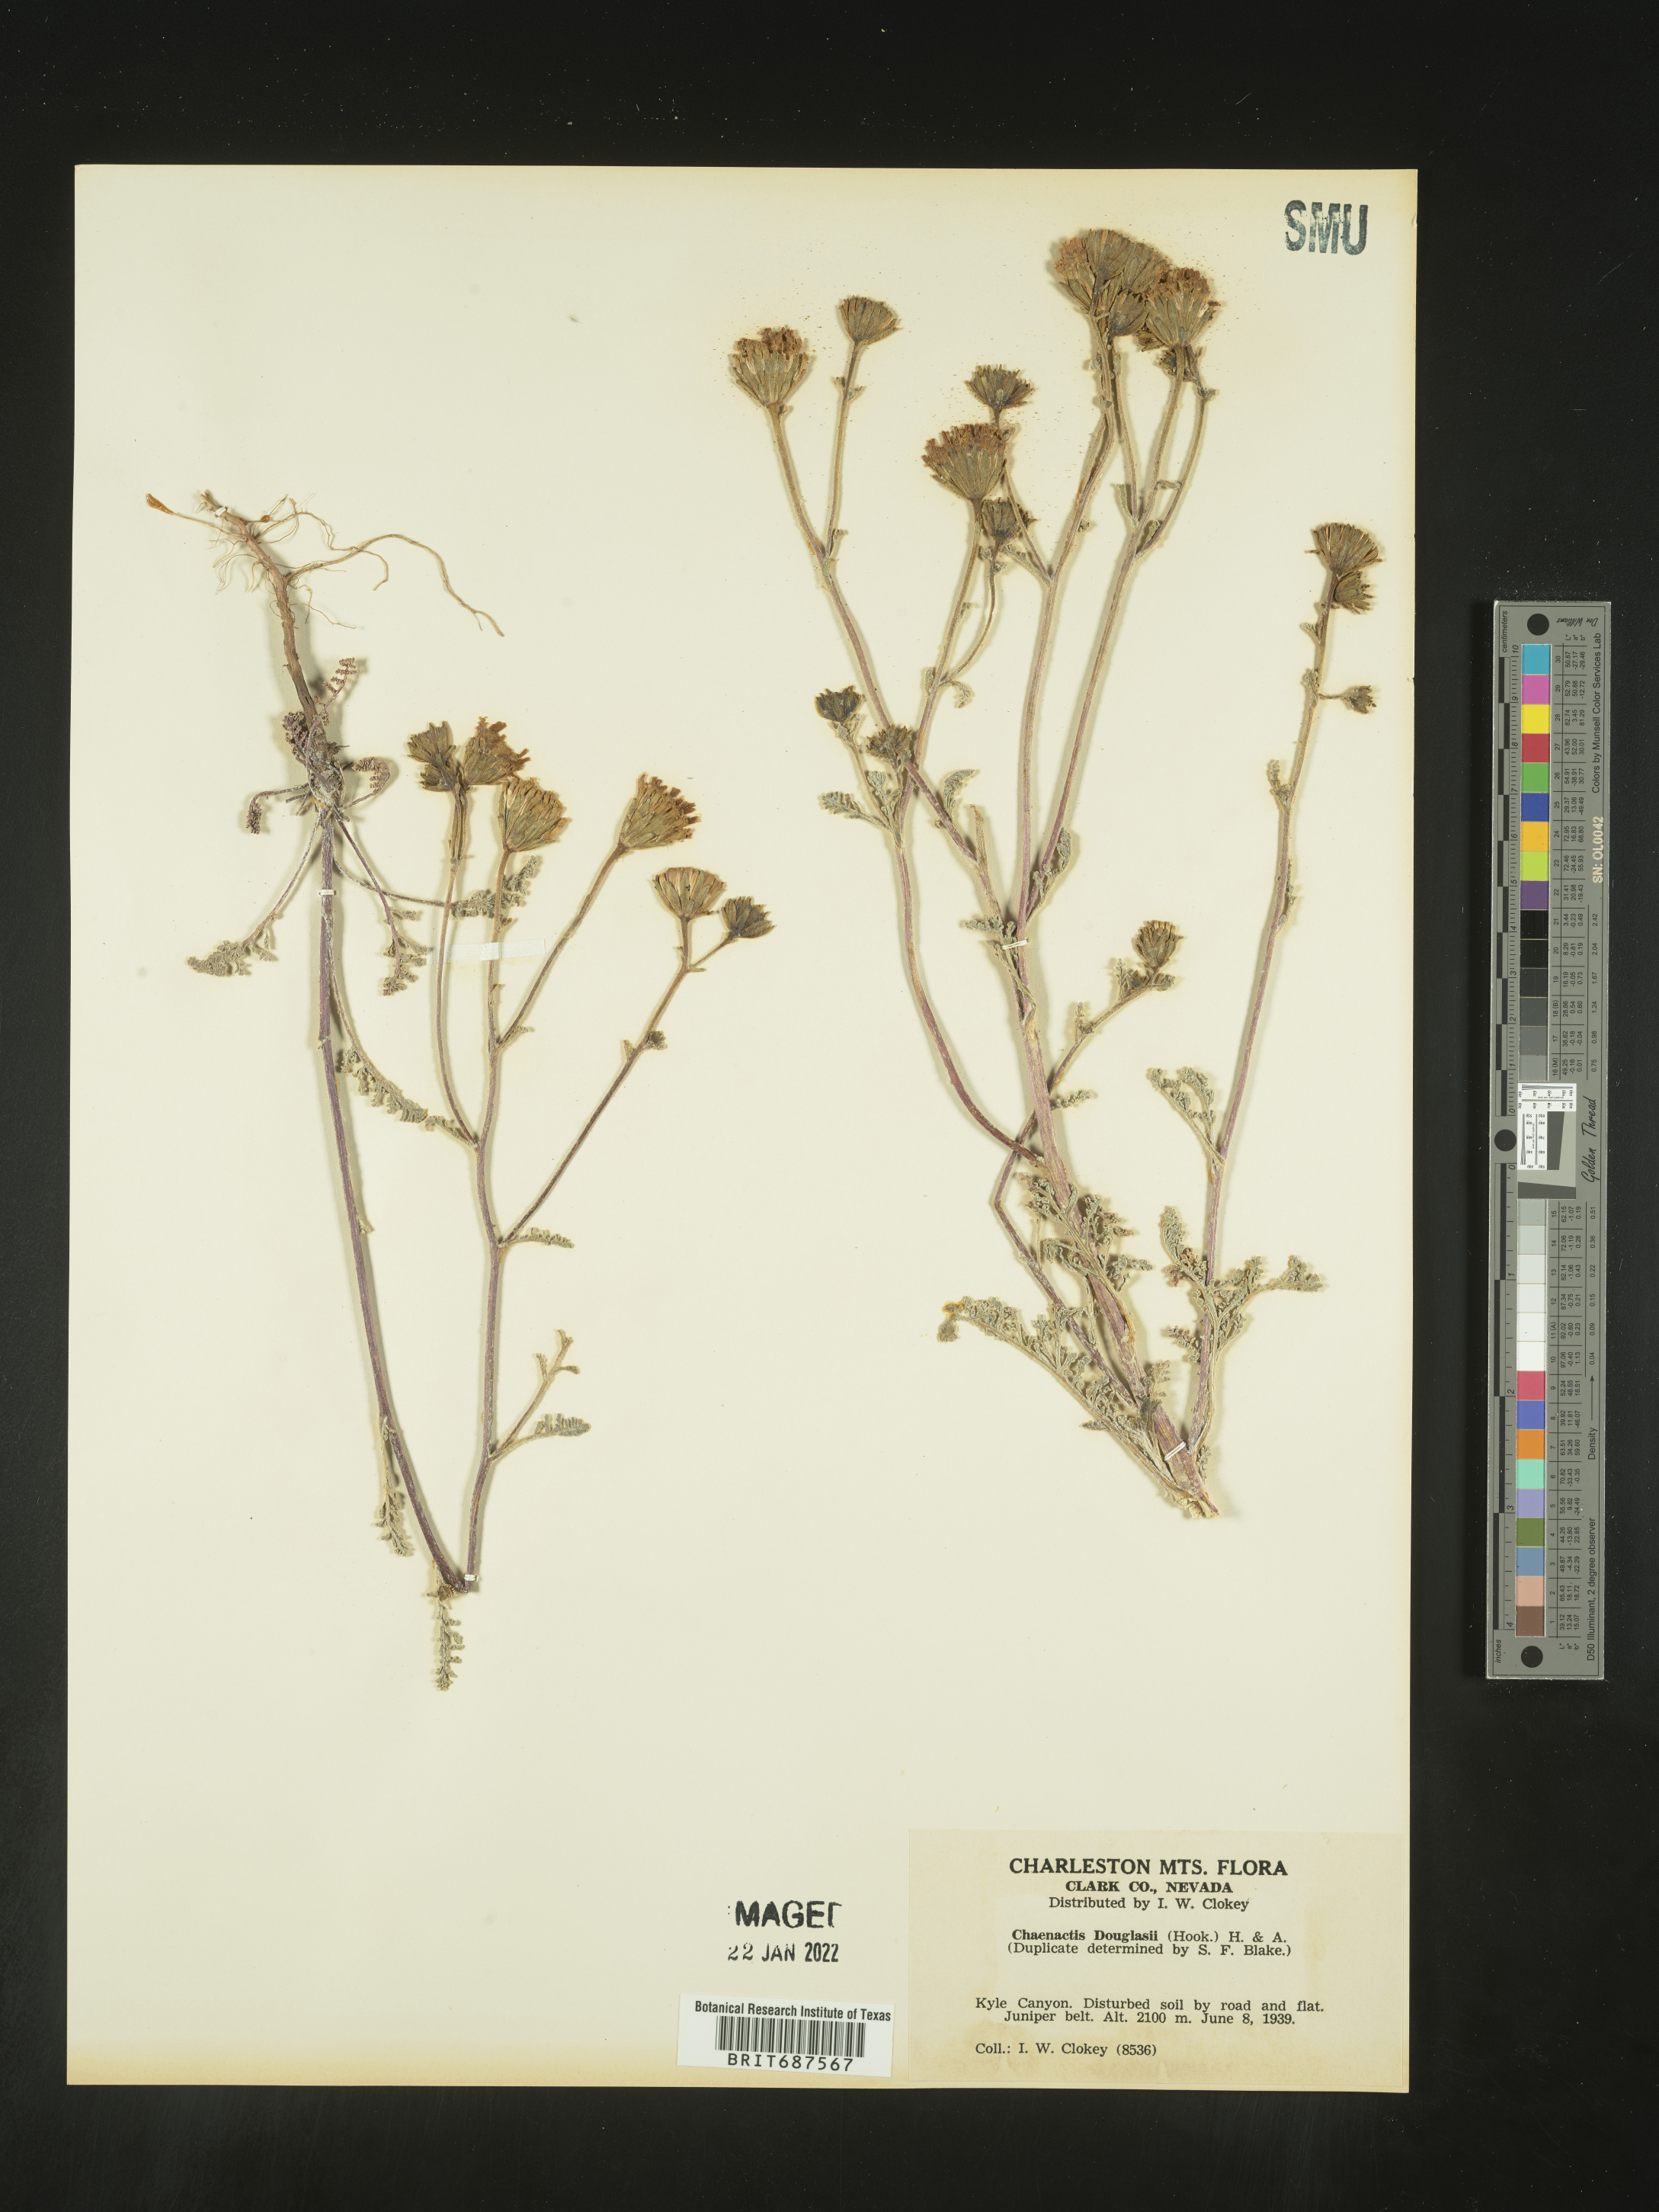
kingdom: Plantae
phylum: Tracheophyta
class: Magnoliopsida
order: Asterales
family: Asteraceae
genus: Chaenactis
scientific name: Chaenactis douglasii
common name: Hoary pincushion
